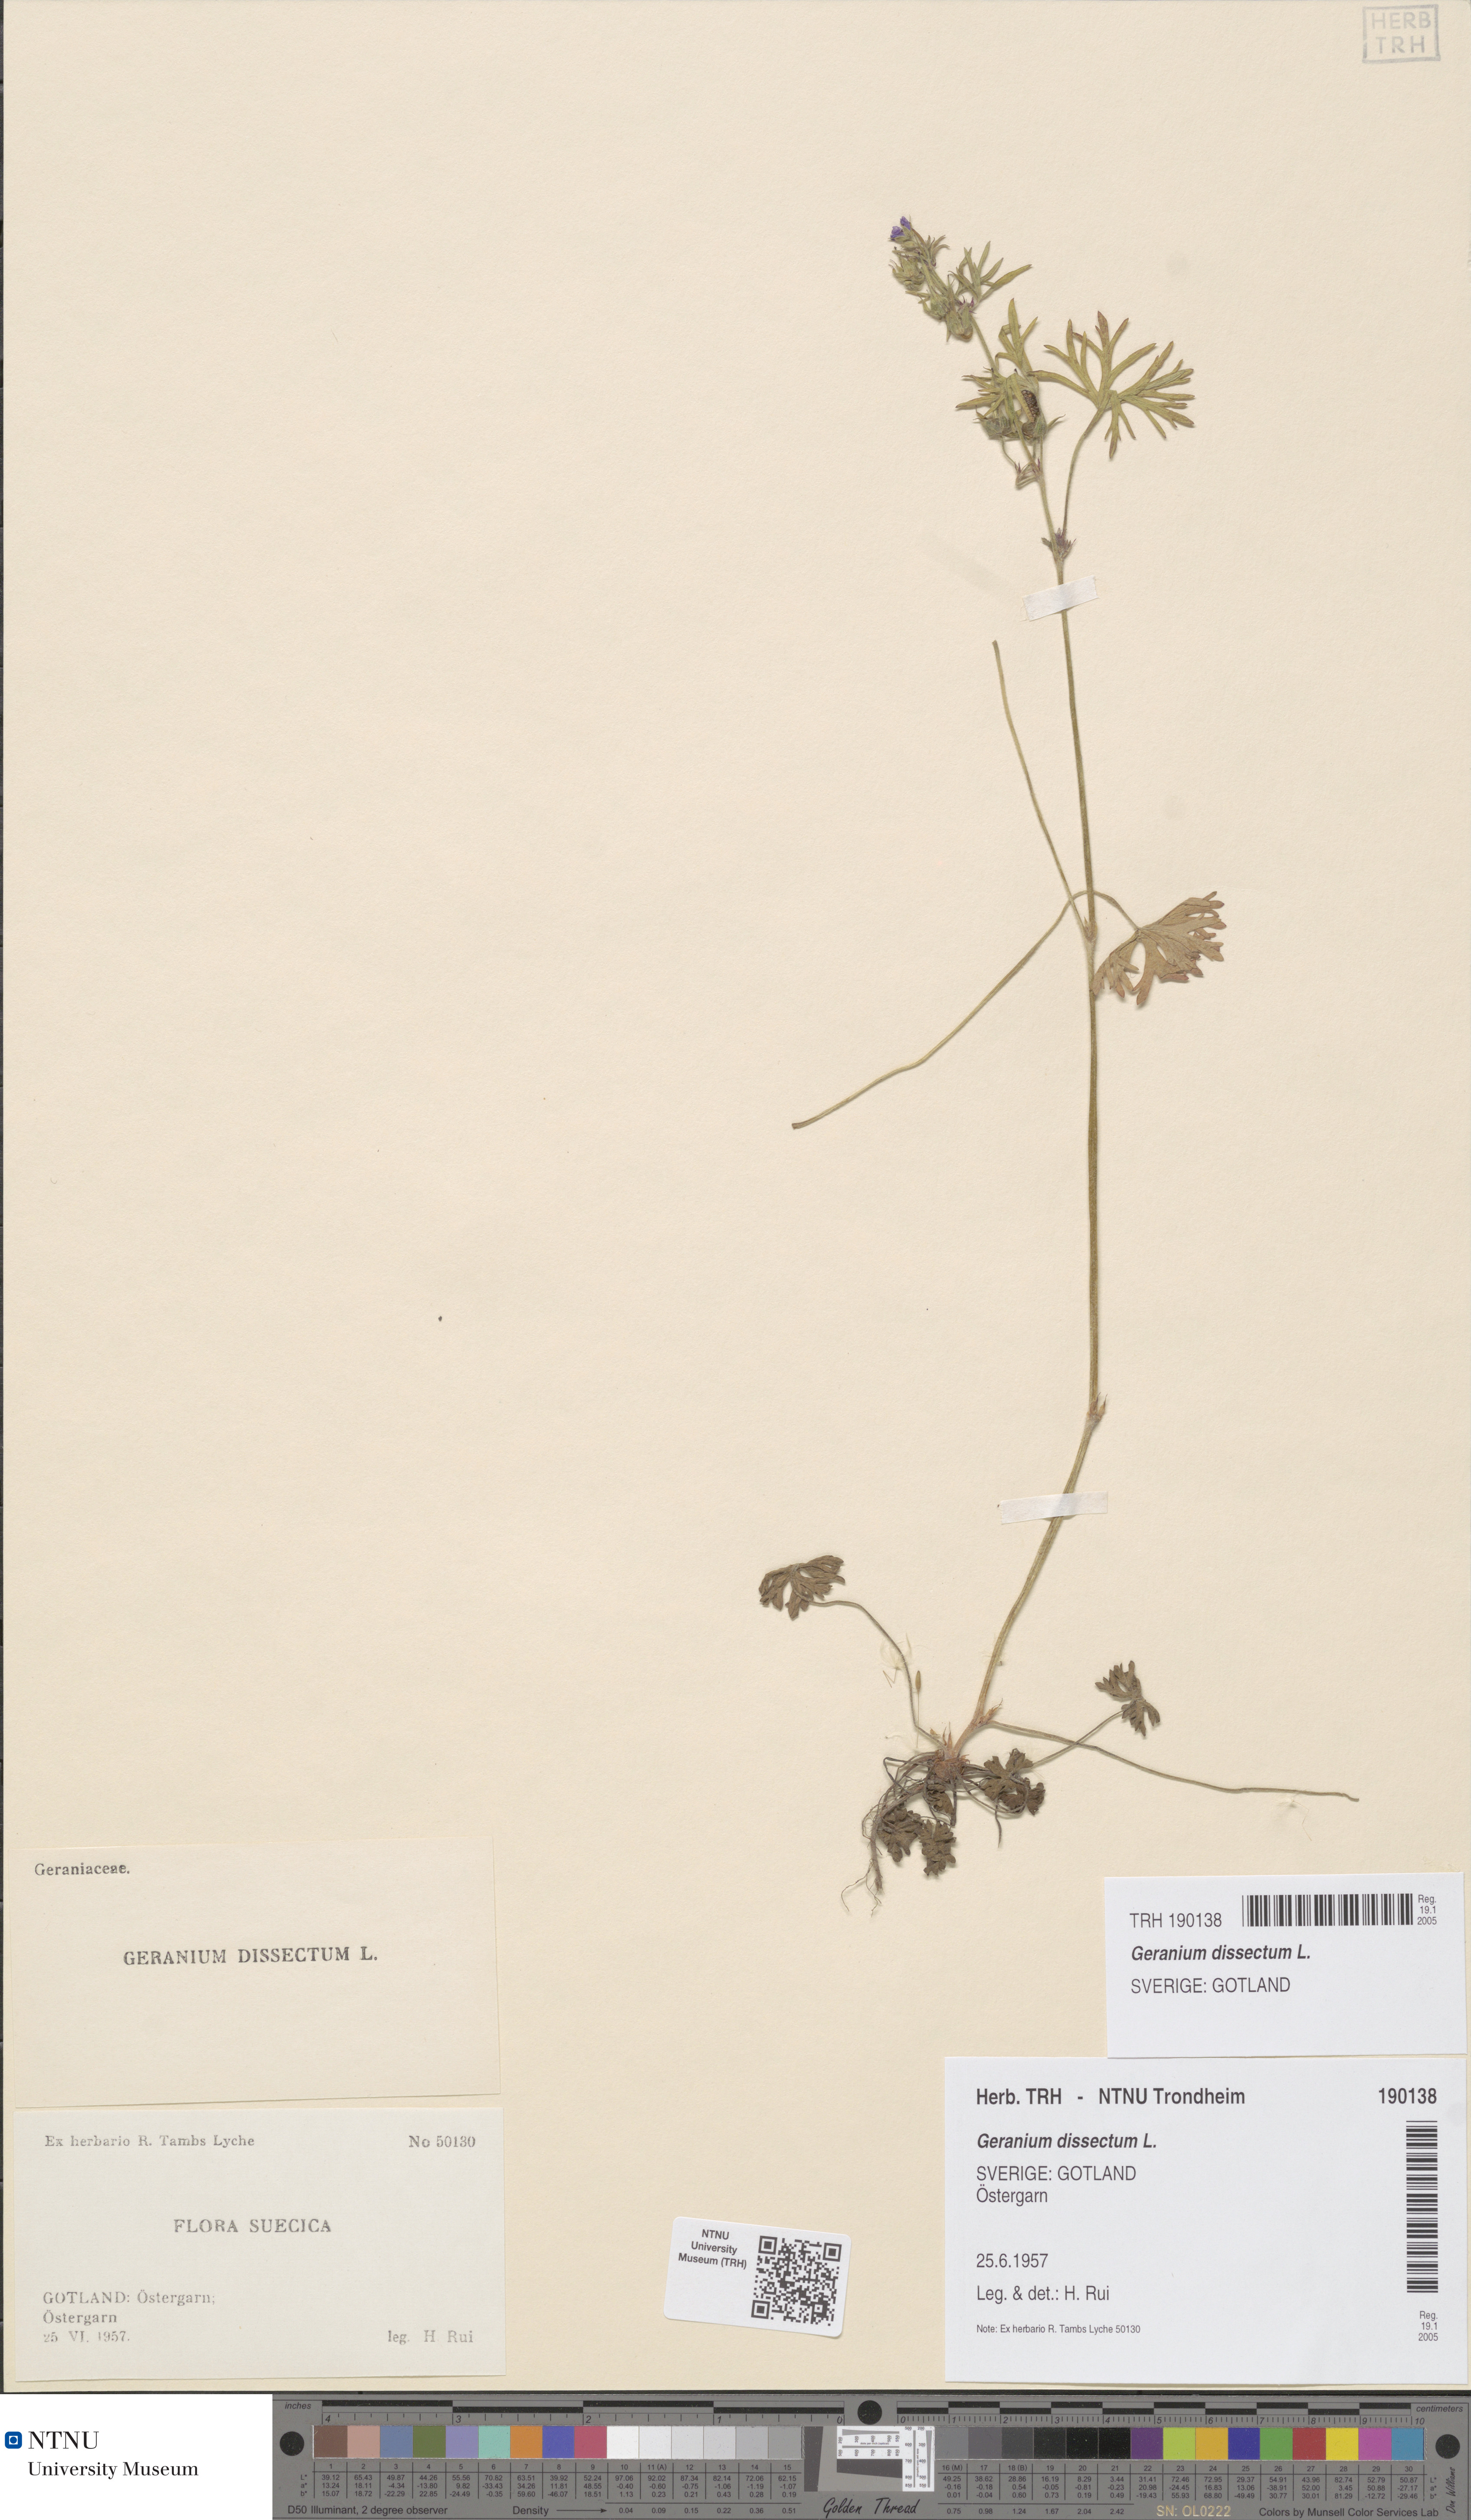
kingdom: Plantae
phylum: Tracheophyta
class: Magnoliopsida
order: Geraniales
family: Geraniaceae
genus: Geranium
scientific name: Geranium dissectum
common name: Cut-leaved crane's-bill
